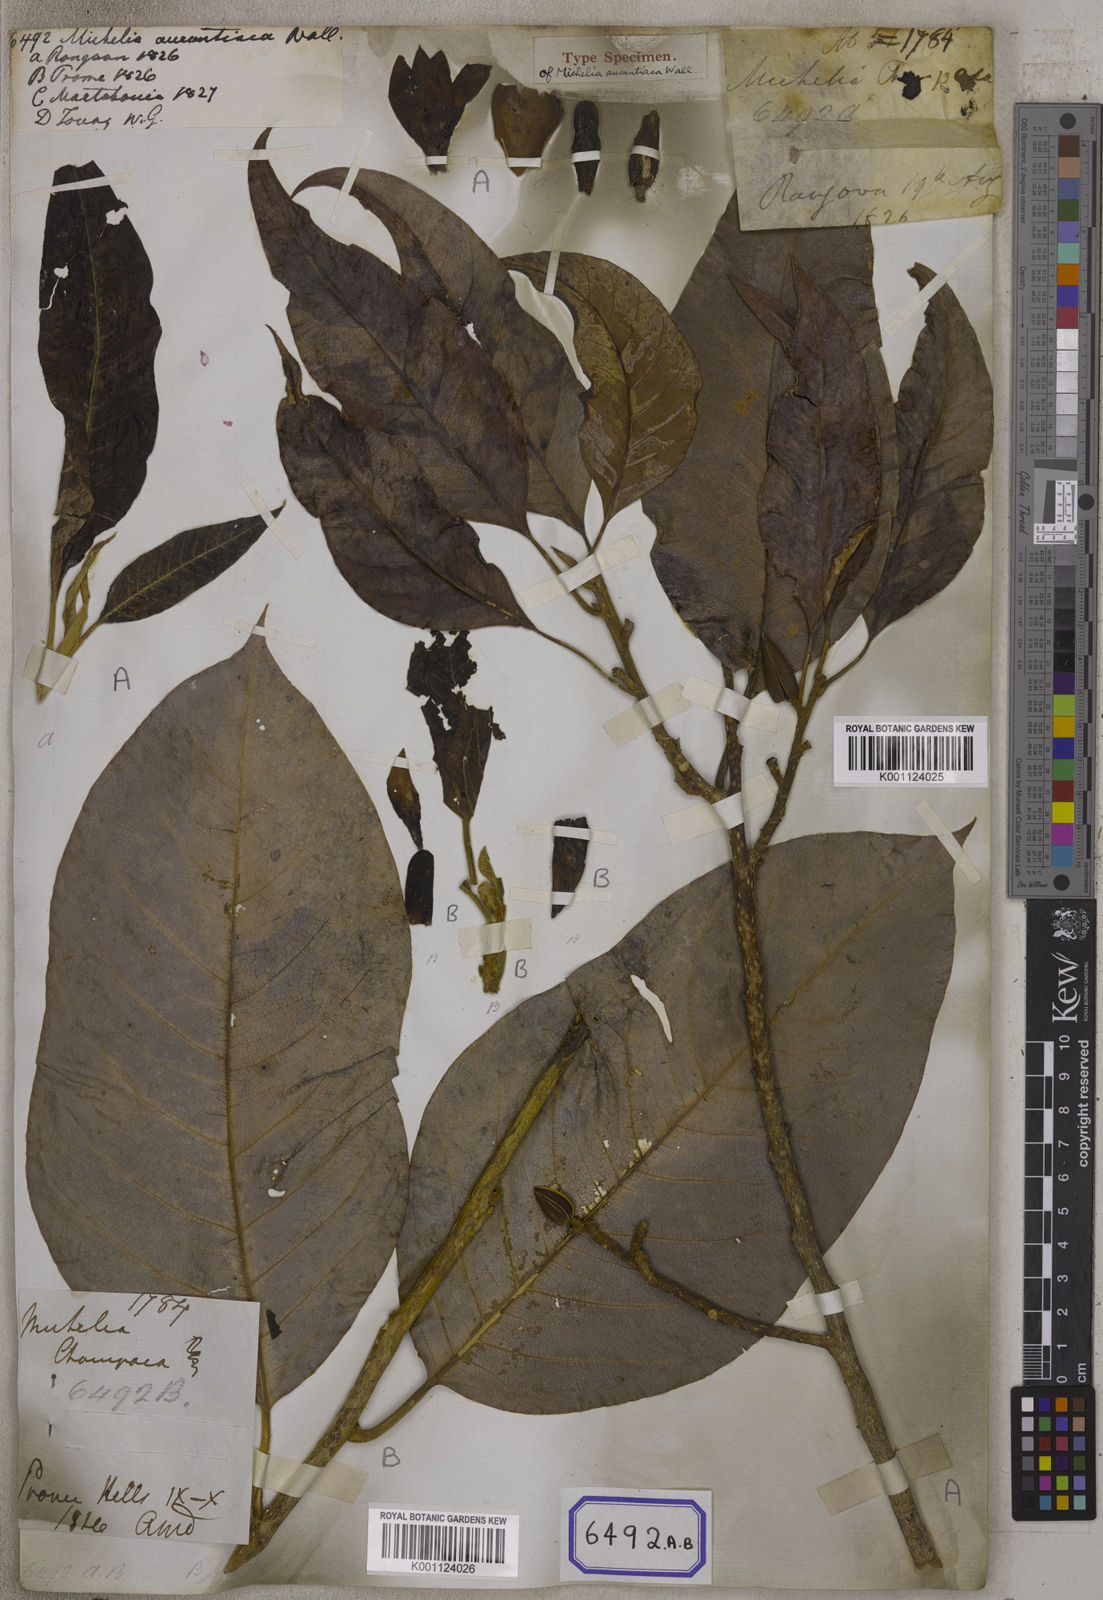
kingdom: Plantae
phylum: Tracheophyta
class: Magnoliopsida
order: Magnoliales
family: Magnoliaceae
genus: Magnolia
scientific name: Magnolia champaca
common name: Champak
